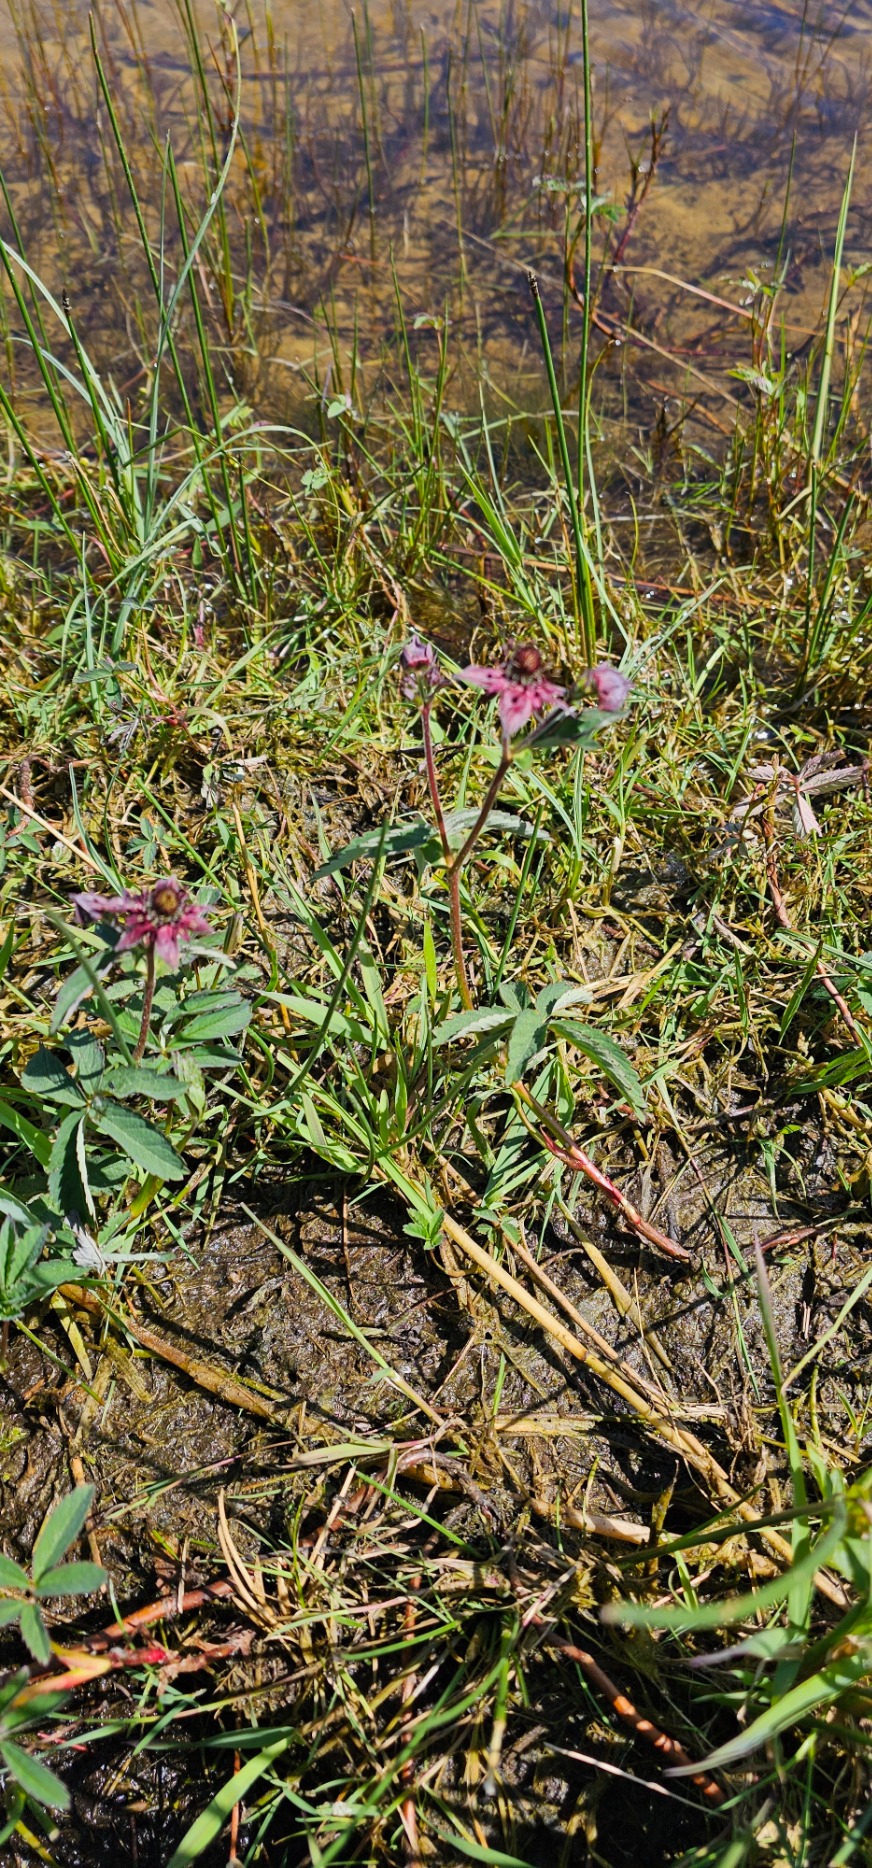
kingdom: Plantae
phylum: Tracheophyta
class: Magnoliopsida
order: Rosales
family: Rosaceae
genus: Comarum
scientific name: Comarum palustre
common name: Kragefod
